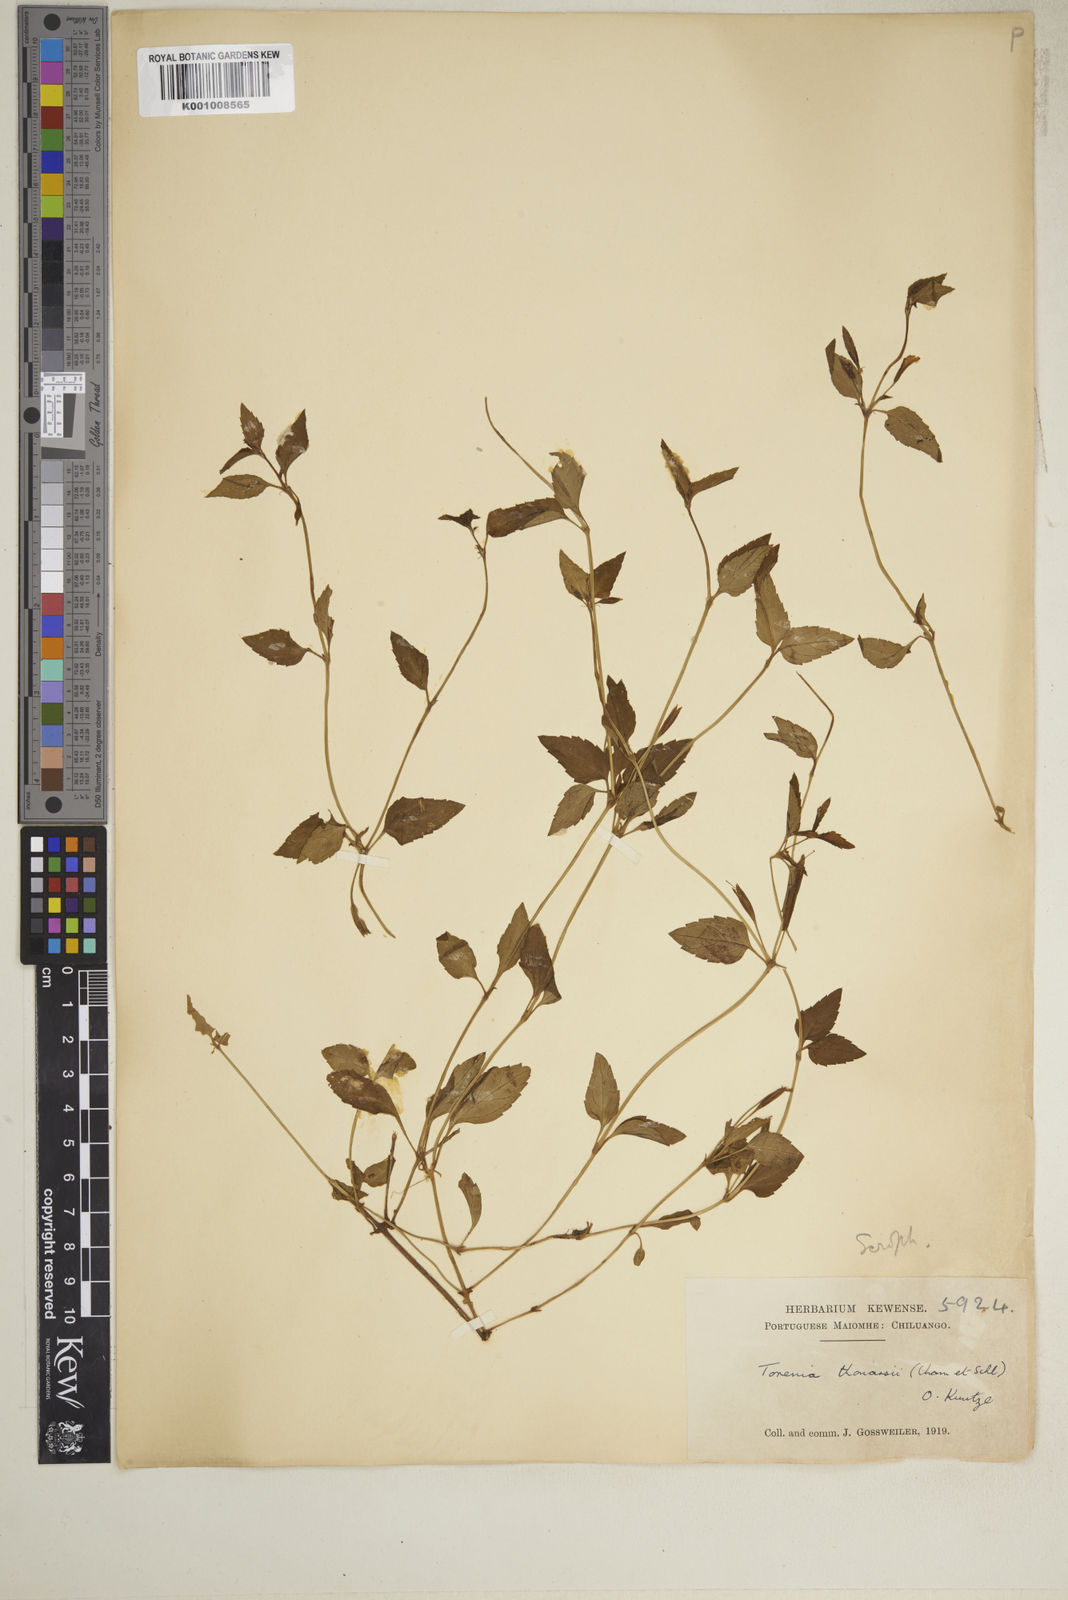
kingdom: Plantae
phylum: Tracheophyta
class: Magnoliopsida
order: Lamiales
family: Linderniaceae
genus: Torenia
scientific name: Torenia thouarsii
